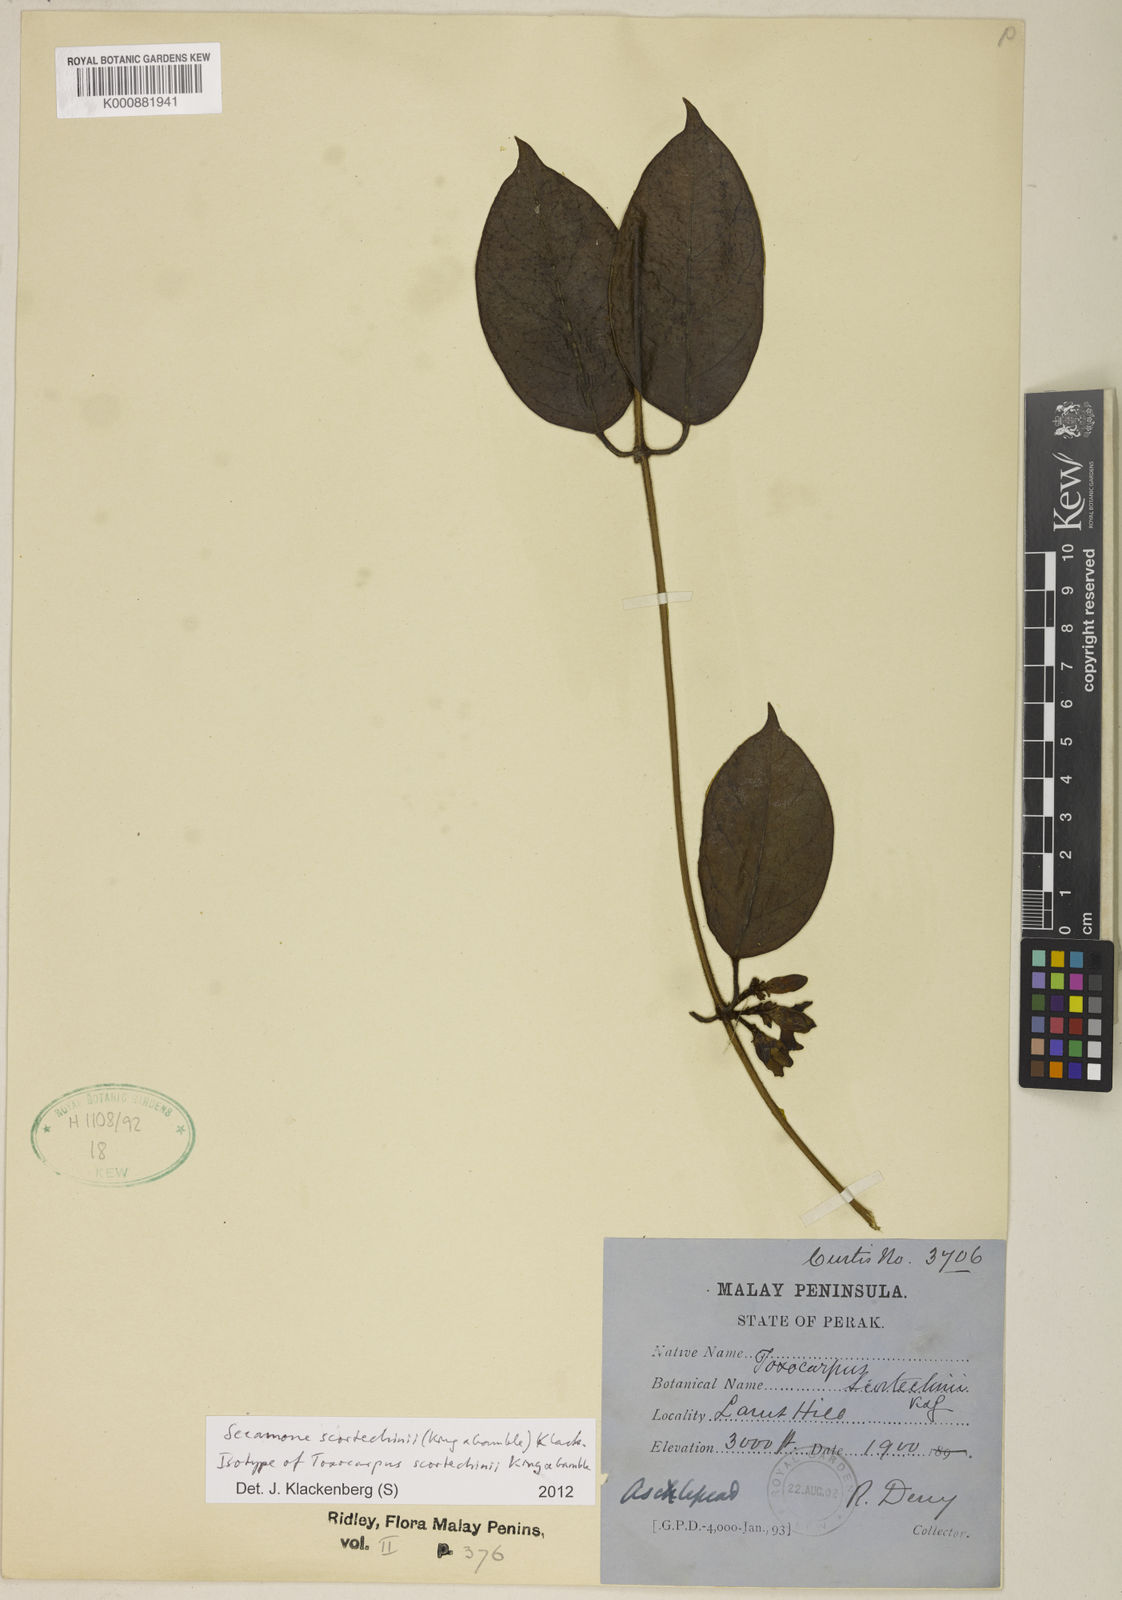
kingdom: Plantae
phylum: Tracheophyta
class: Magnoliopsida
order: Gentianales
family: Apocynaceae
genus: Secamone
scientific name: Secamone scortechinii
